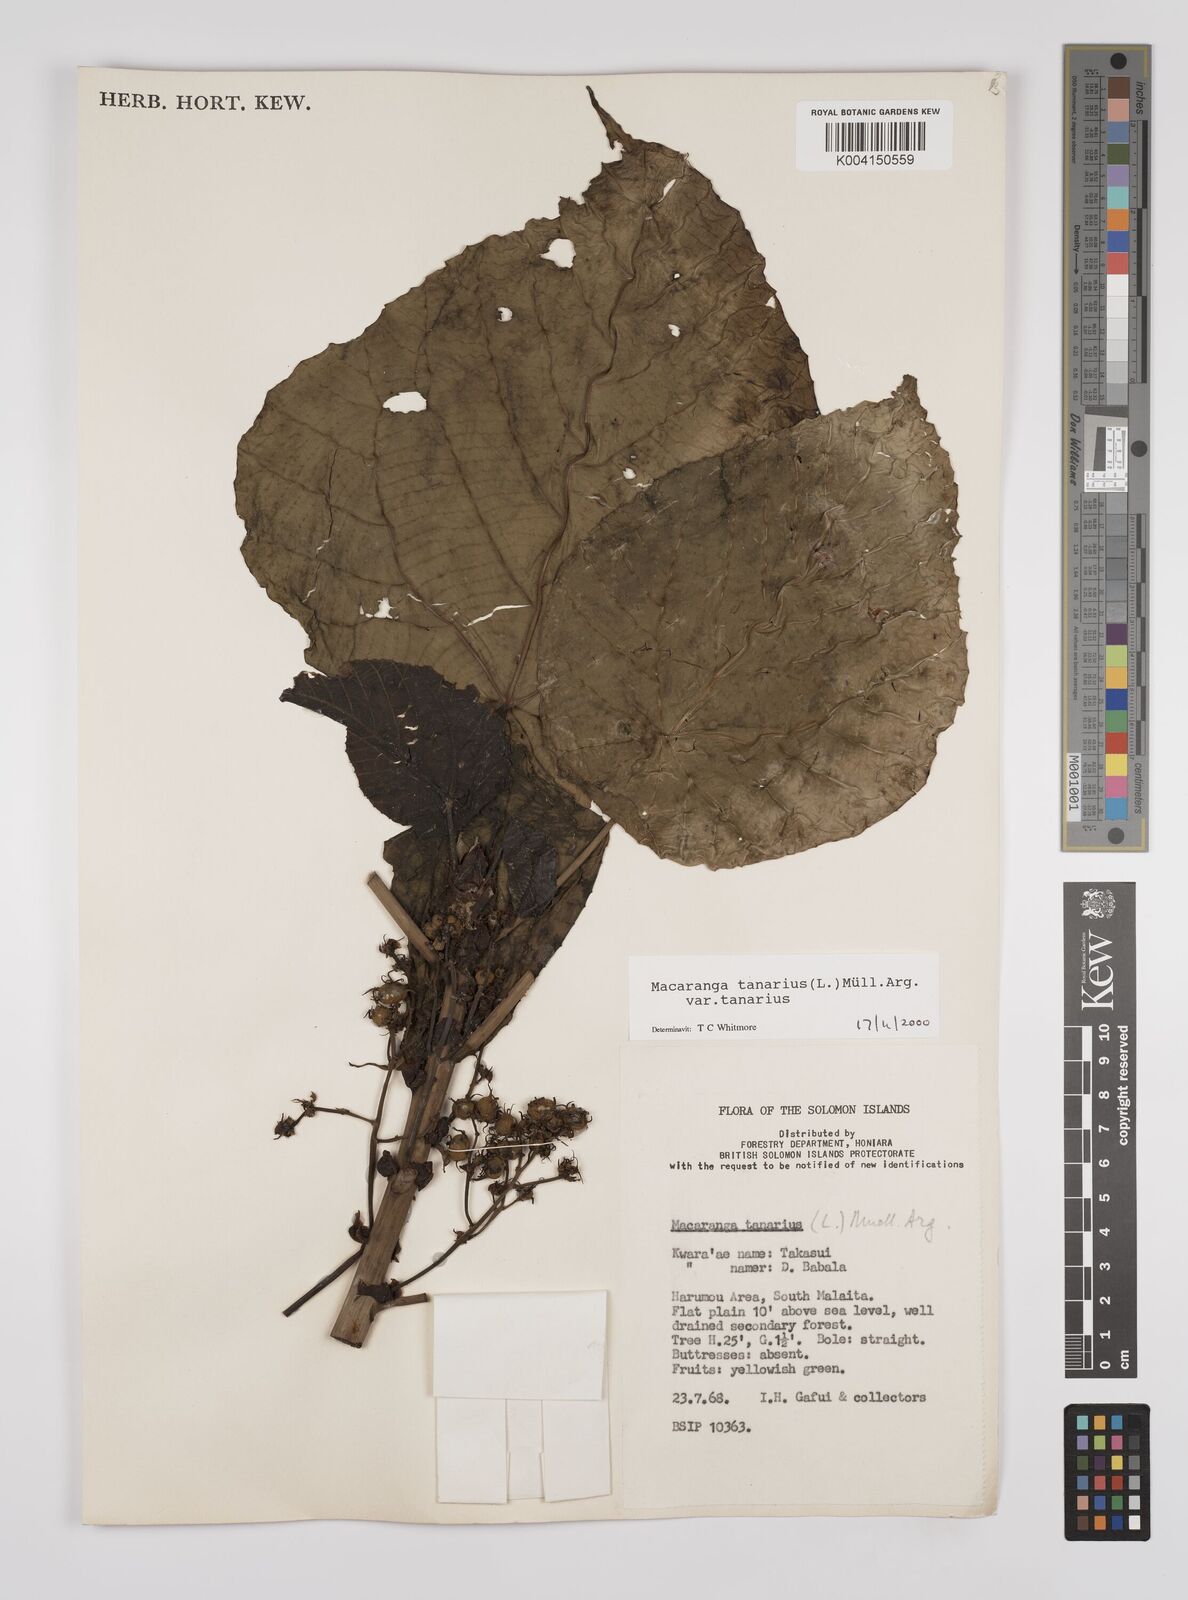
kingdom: Plantae
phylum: Tracheophyta
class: Magnoliopsida
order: Malpighiales
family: Euphorbiaceae
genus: Macaranga
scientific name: Macaranga tanarius
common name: Parasol leaf tree
